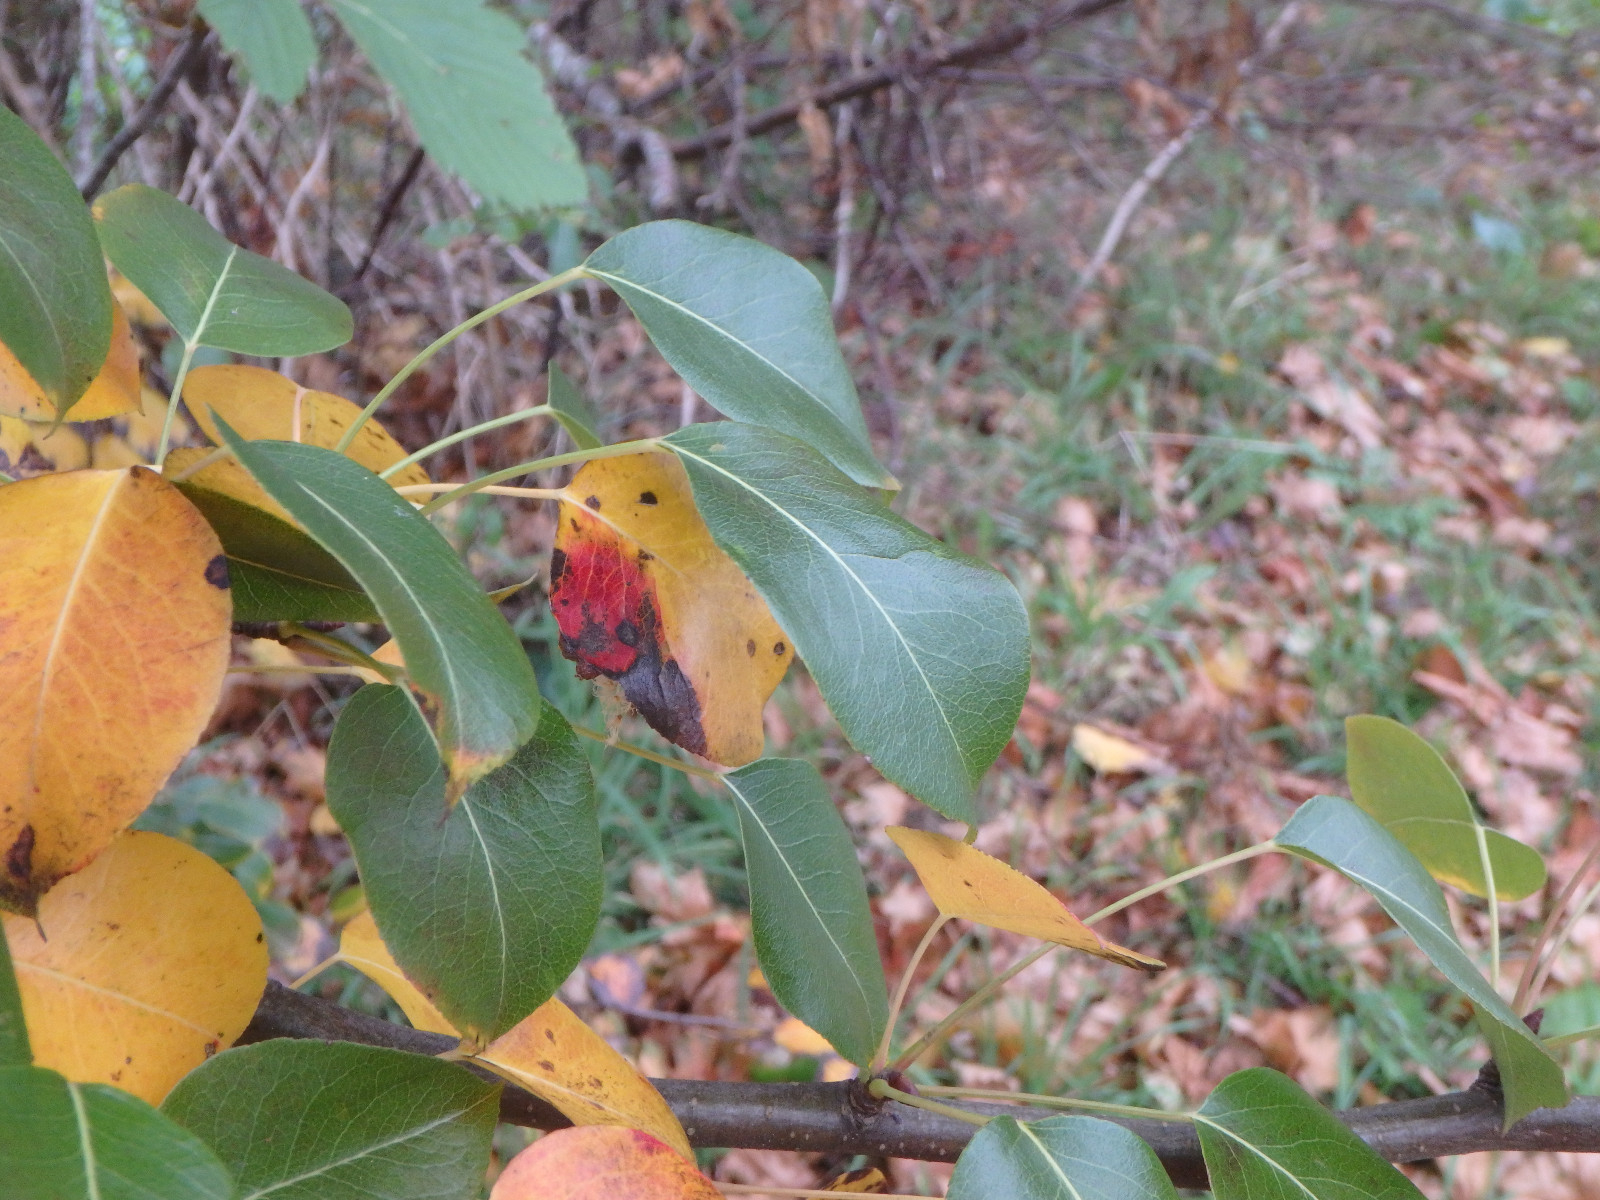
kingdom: Fungi
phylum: Basidiomycota
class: Pucciniomycetes
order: Pucciniales
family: Gymnosporangiaceae
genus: Gymnosporangium
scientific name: Gymnosporangium sabinae
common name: pæregitter-bævrerust
